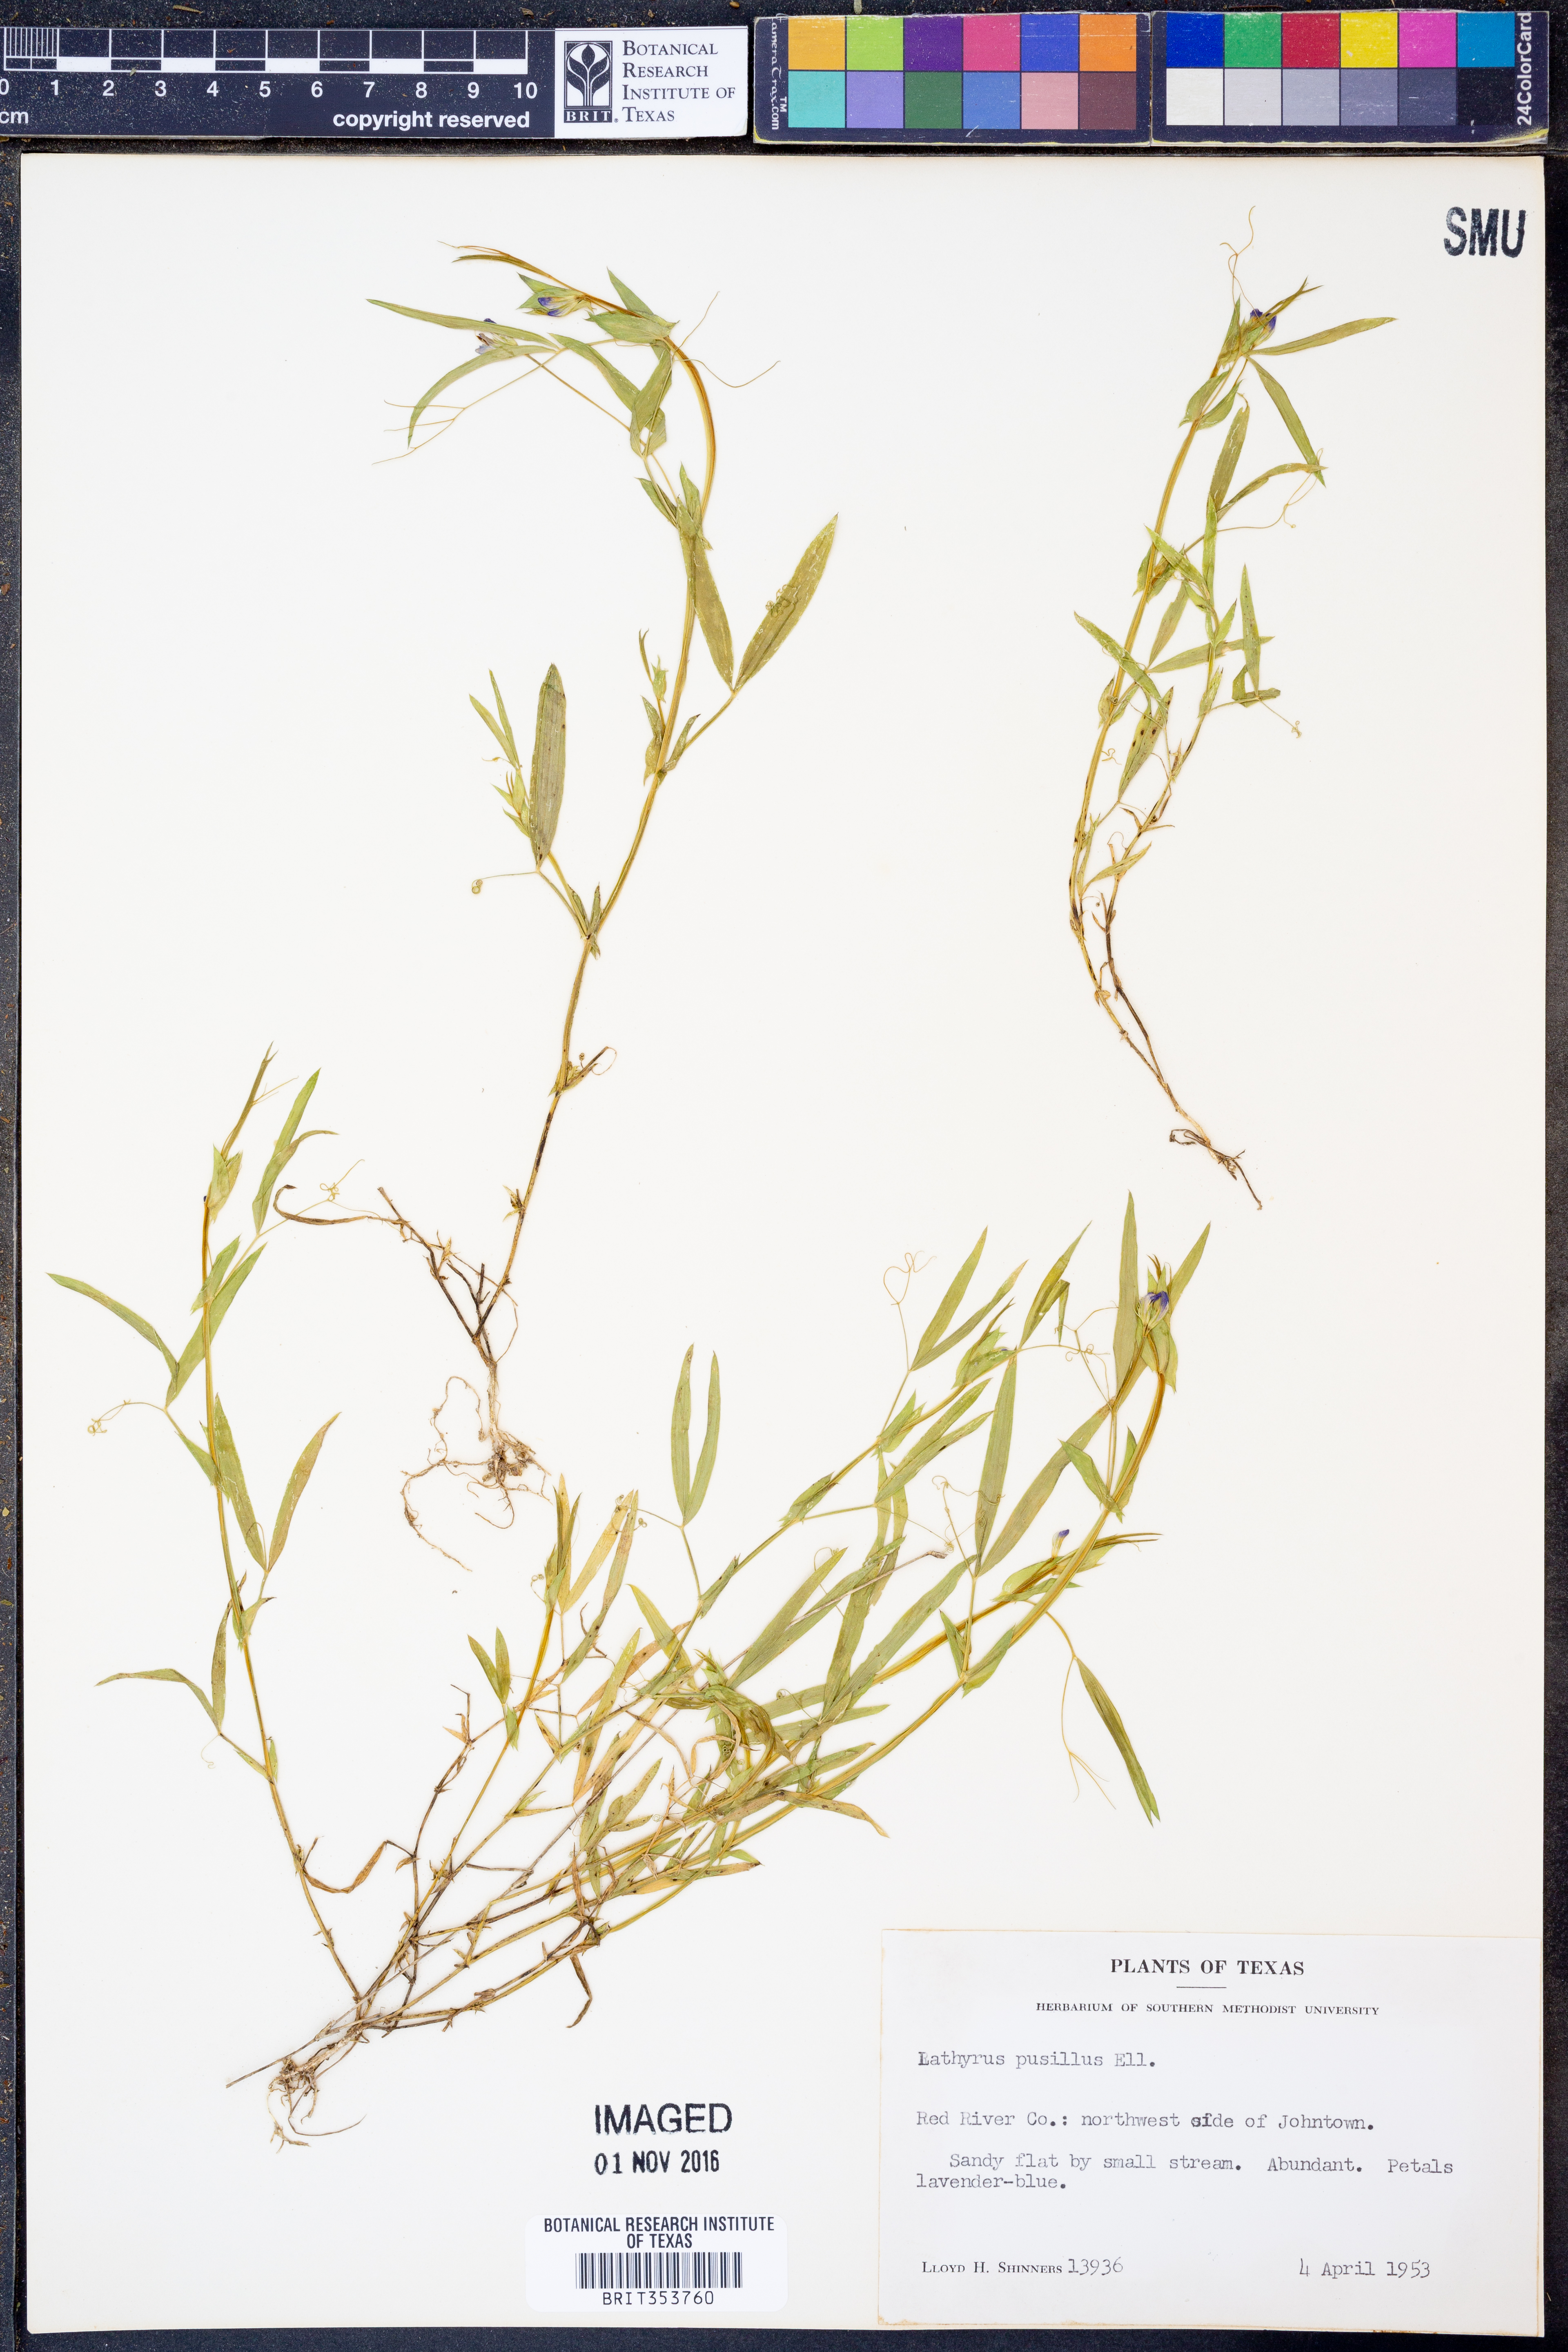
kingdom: Plantae
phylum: Tracheophyta
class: Magnoliopsida
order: Fabales
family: Fabaceae
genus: Lathyrus
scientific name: Lathyrus pusillus
